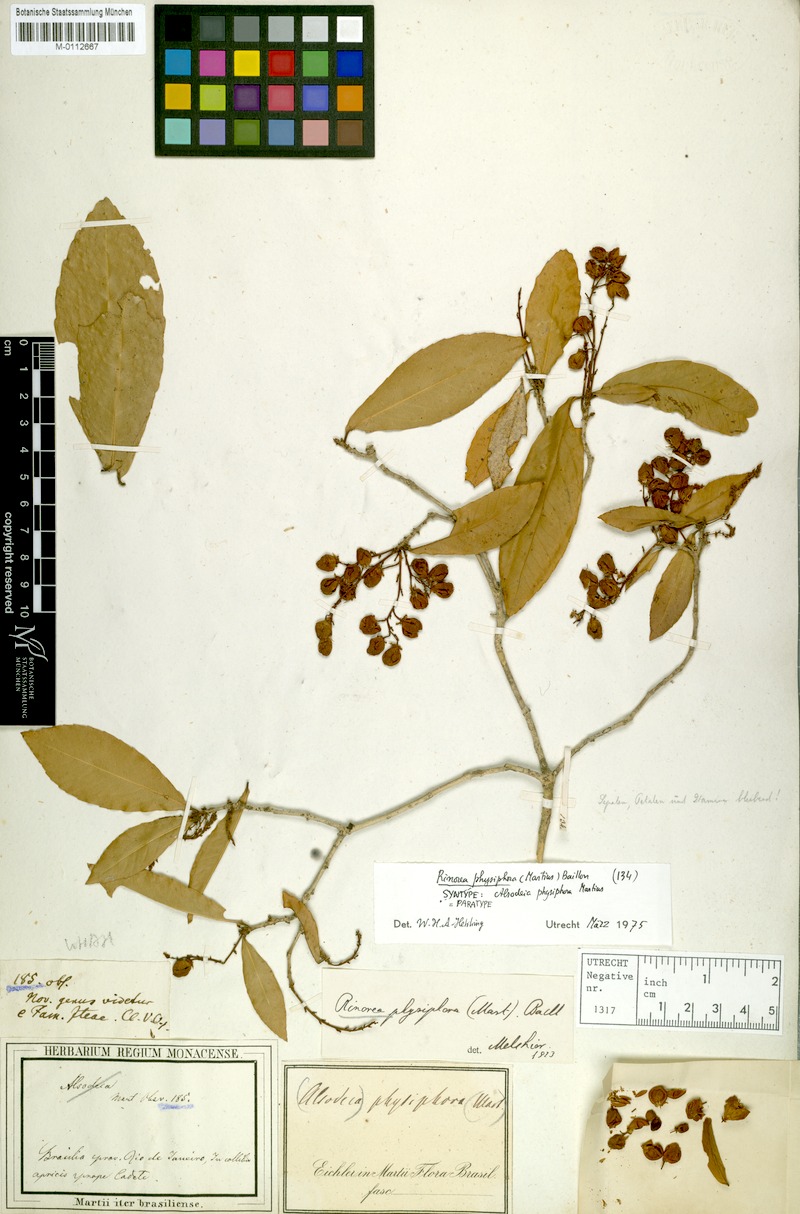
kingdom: Plantae
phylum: Tracheophyta
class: Magnoliopsida
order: Malpighiales
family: Violaceae
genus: Rinorea
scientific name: Rinorea laevigata
